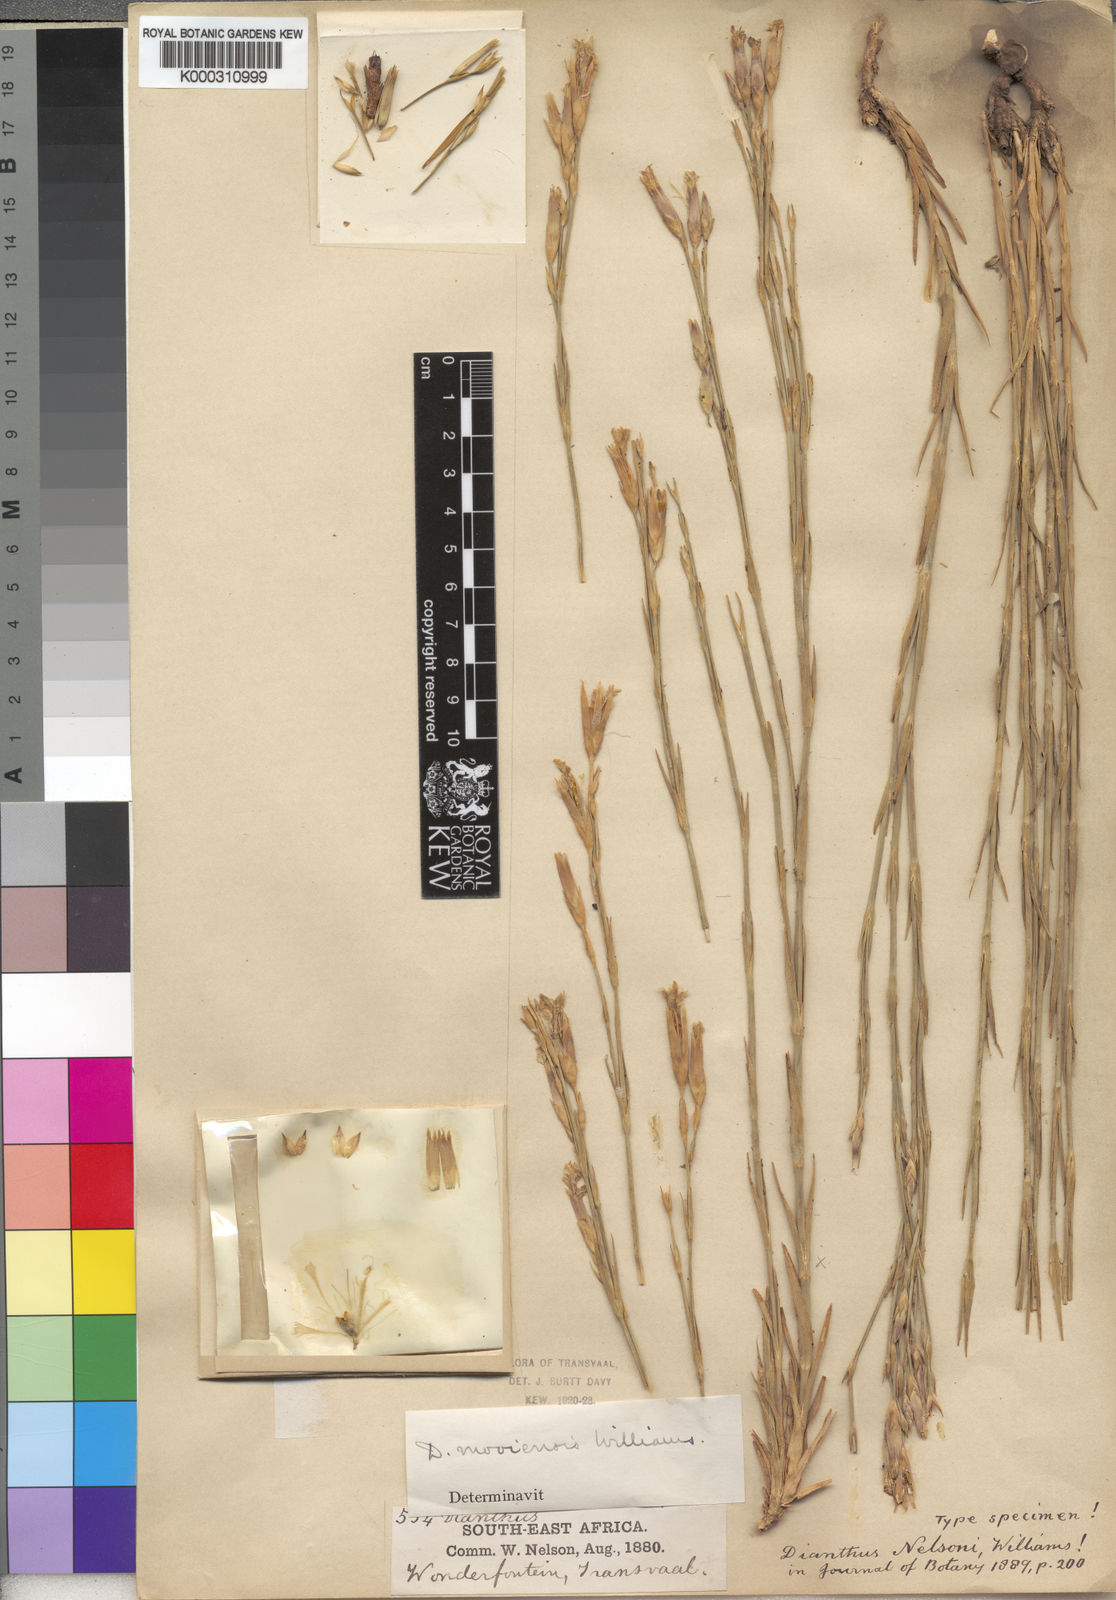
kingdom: Plantae
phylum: Tracheophyta
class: Magnoliopsida
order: Caryophyllales
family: Caryophyllaceae
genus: Dianthus
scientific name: Dianthus moviensis
